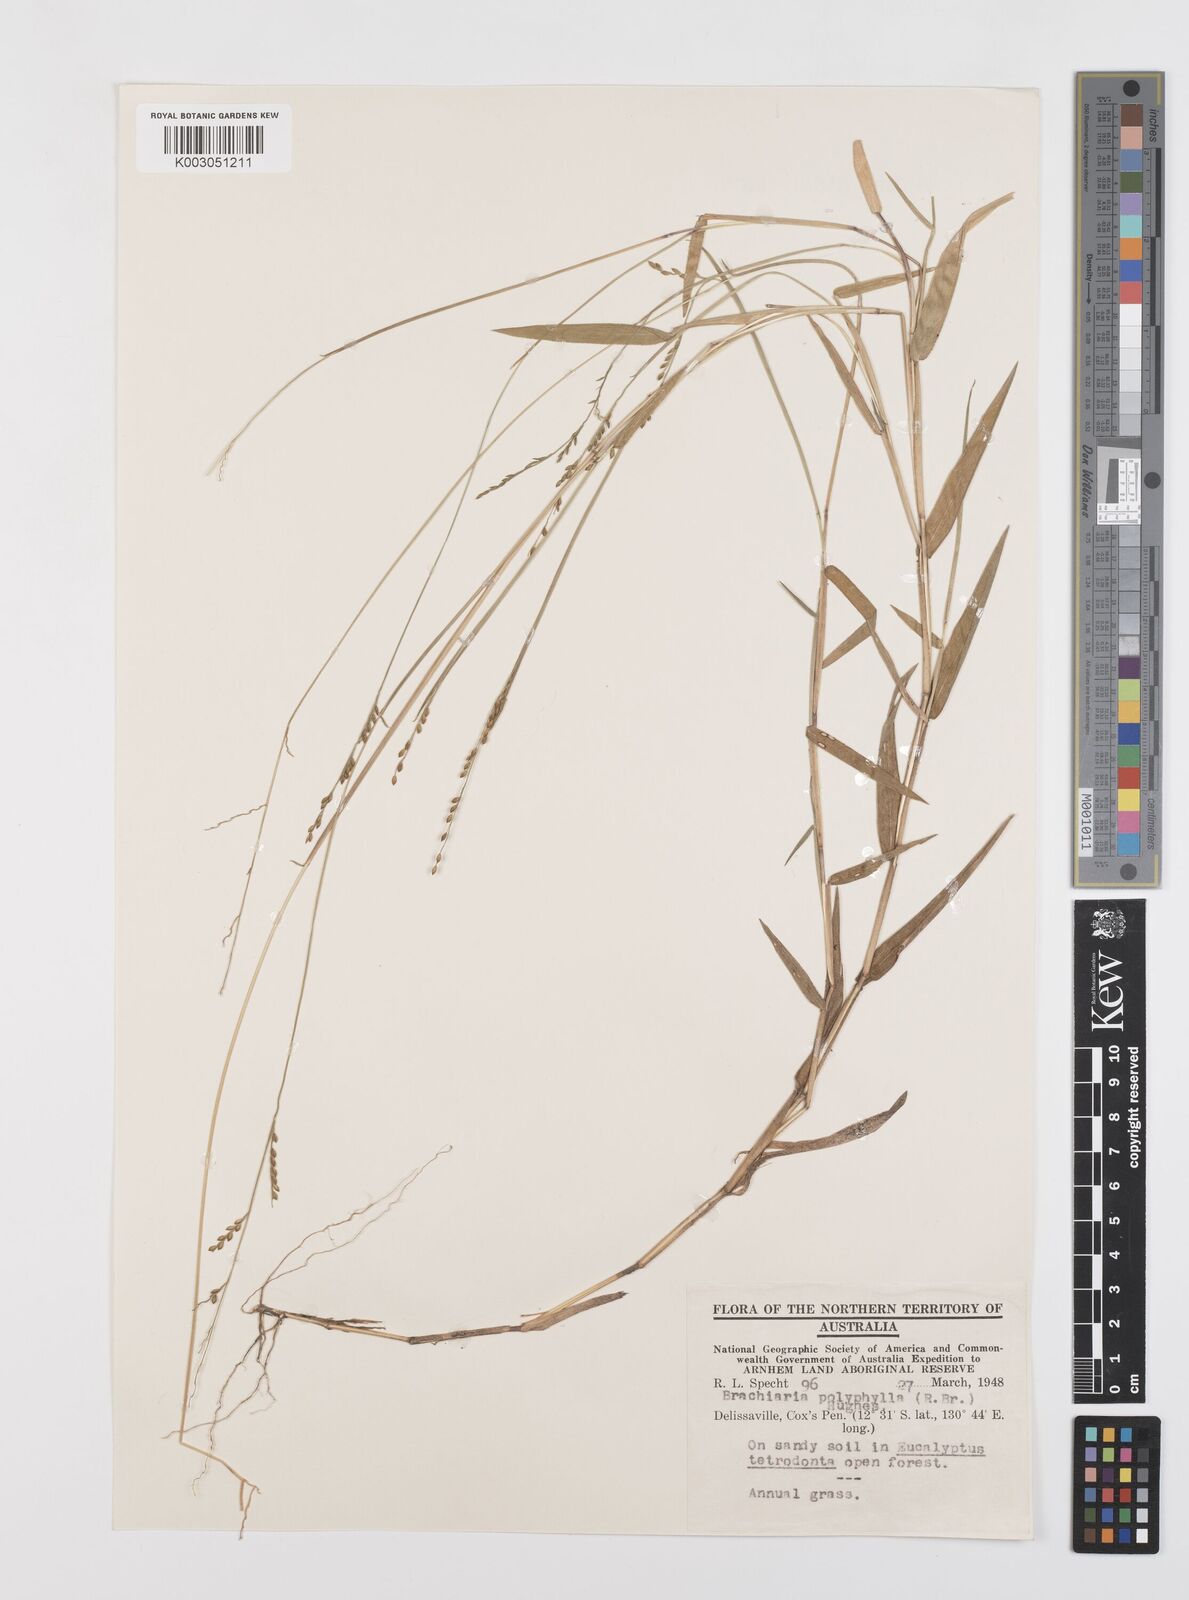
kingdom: Plantae
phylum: Tracheophyta
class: Liliopsida
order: Poales
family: Poaceae
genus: Urochloa
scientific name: Urochloa polyphylla
